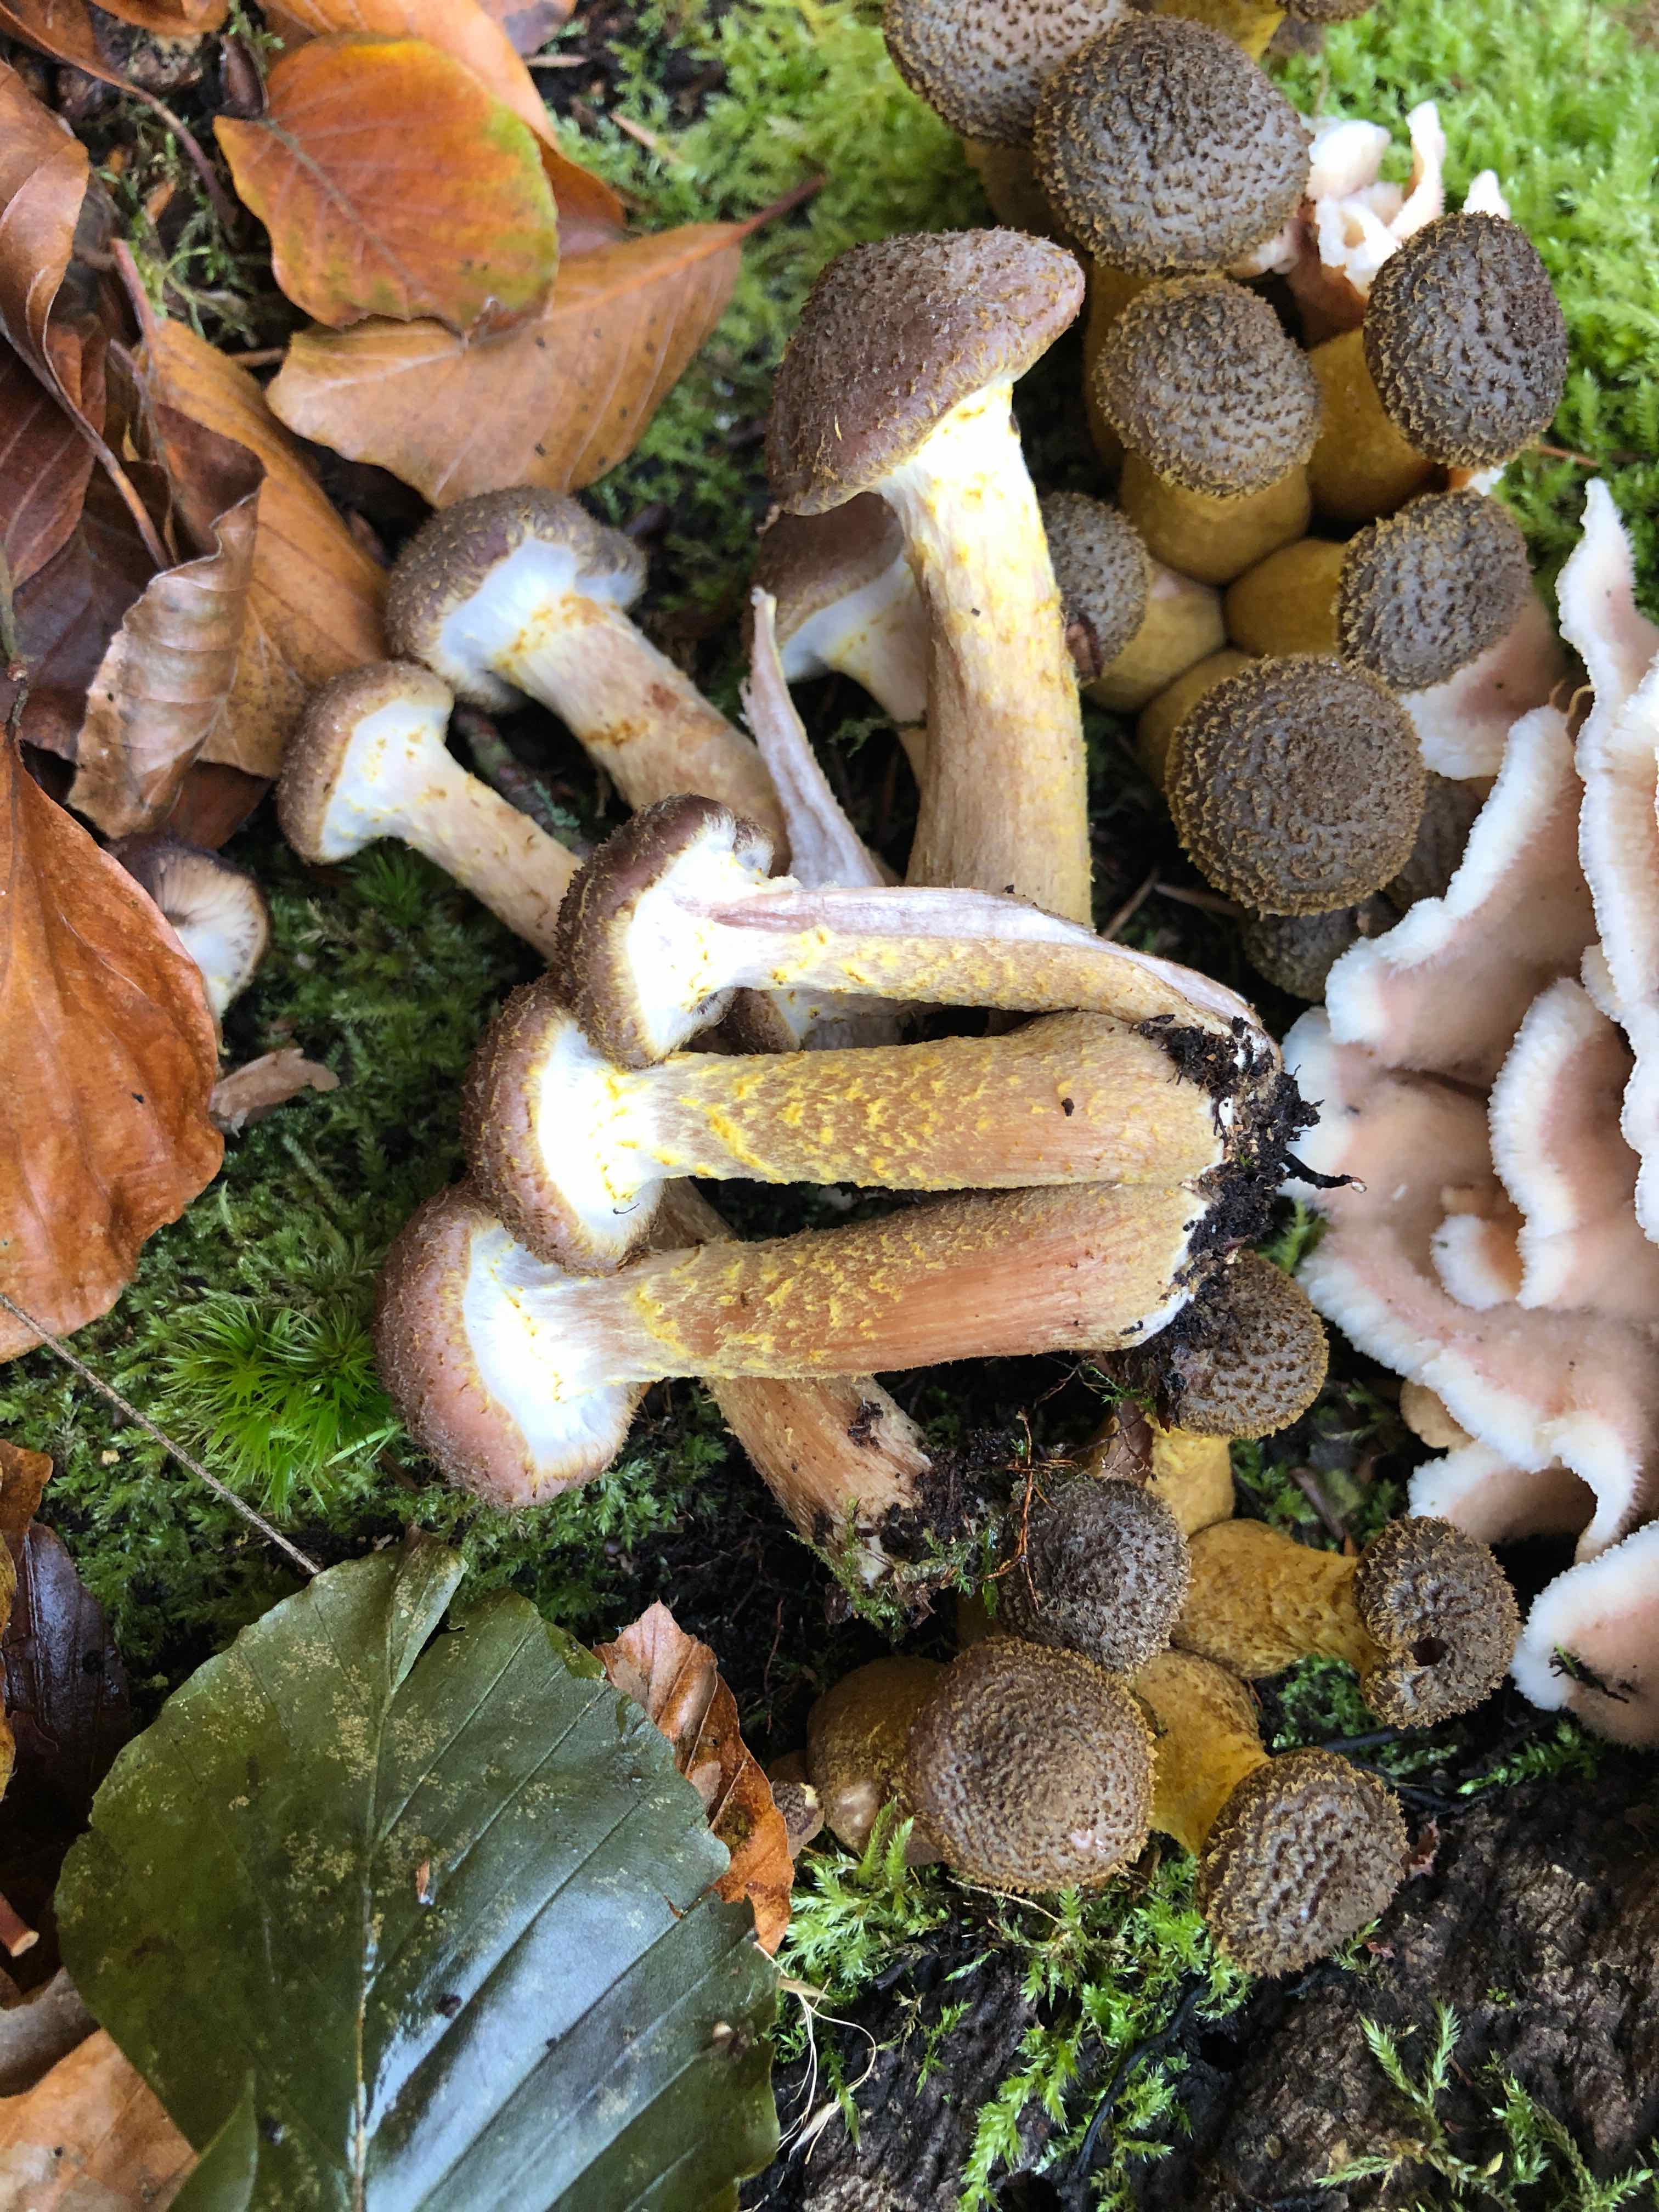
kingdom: Fungi
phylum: Basidiomycota
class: Agaricomycetes
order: Agaricales
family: Physalacriaceae
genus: Armillaria
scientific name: Armillaria lutea
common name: køllestokket honningsvamp
